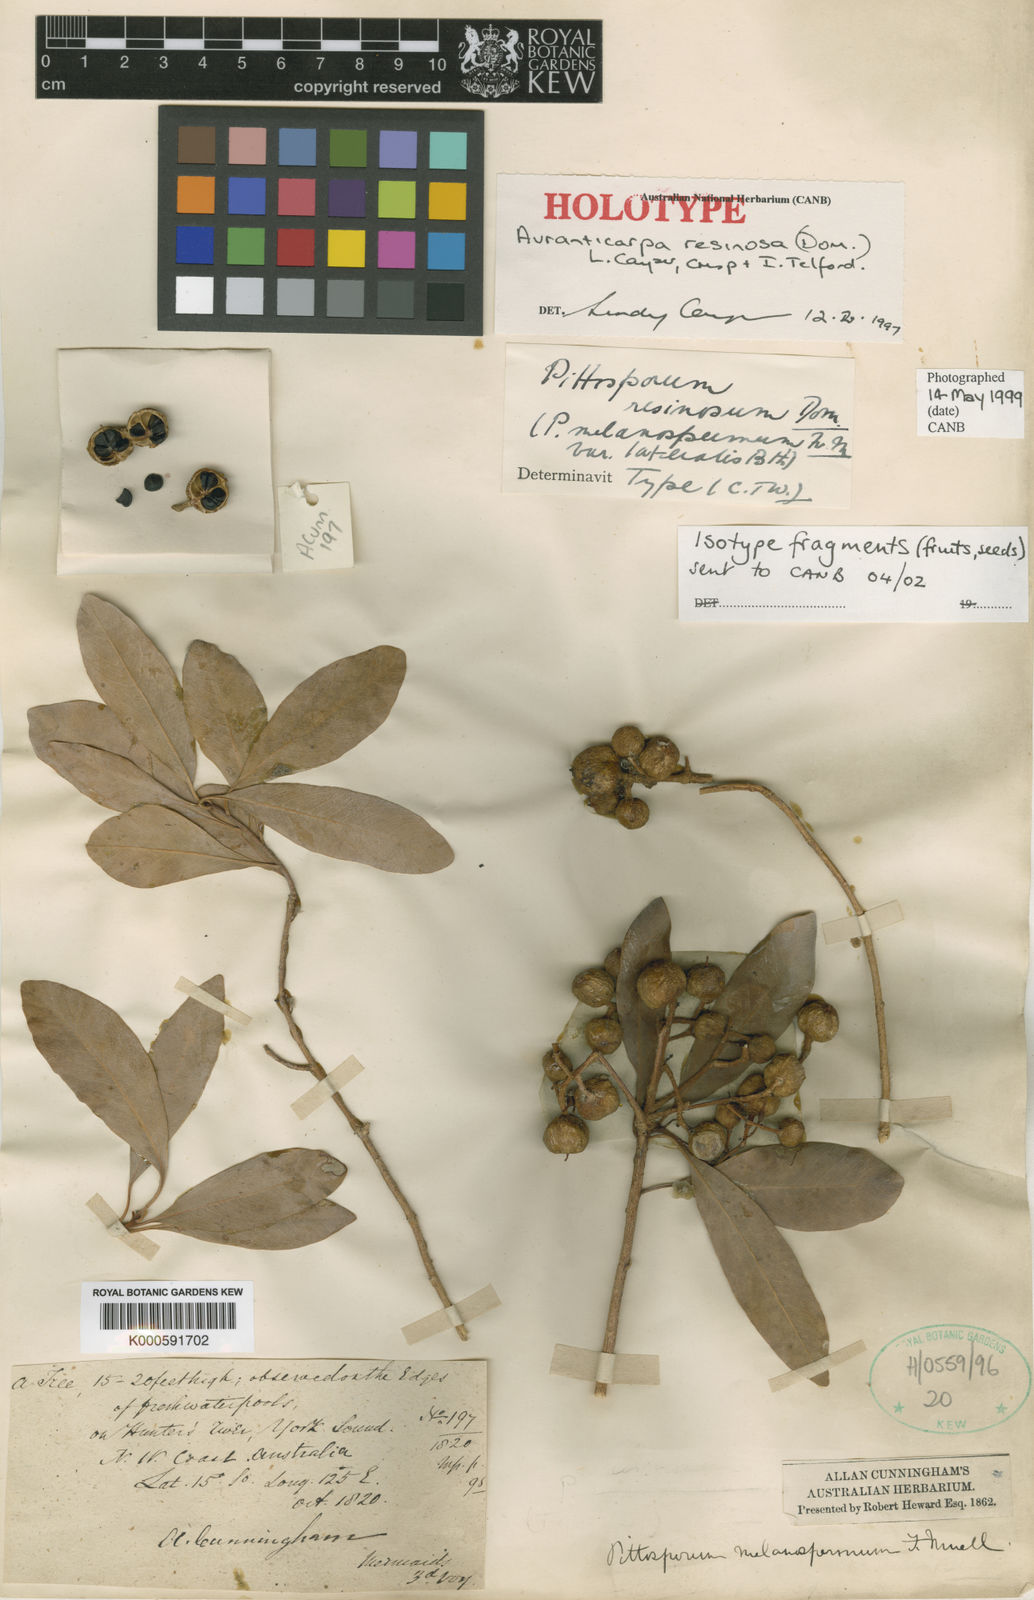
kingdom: Plantae
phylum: Tracheophyta
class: Magnoliopsida
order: Apiales
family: Pittosporaceae
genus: Pittosporum
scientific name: Pittosporum
